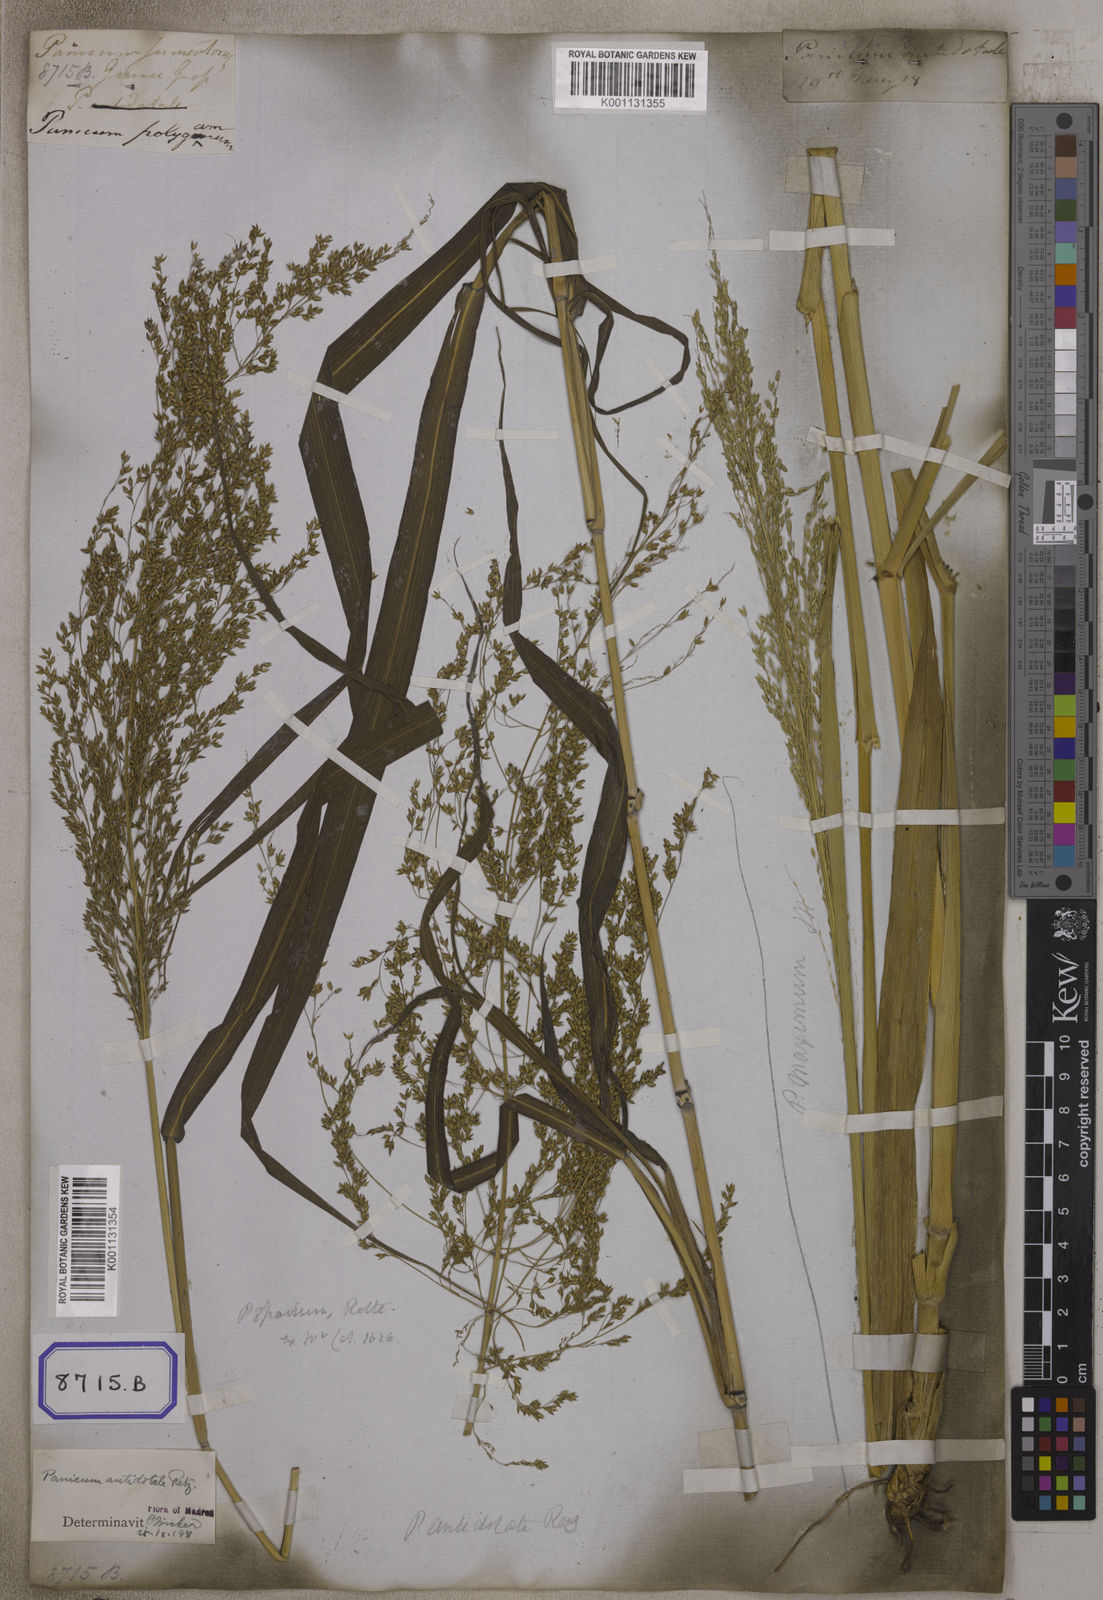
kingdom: Plantae
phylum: Tracheophyta
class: Liliopsida
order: Poales
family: Poaceae
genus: Megathyrsus
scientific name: Megathyrsus maximus
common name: Guineagrass
